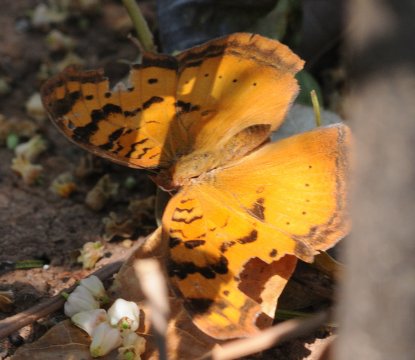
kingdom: Animalia
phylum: Arthropoda
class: Insecta
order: Lepidoptera
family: Nymphalidae
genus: Junonia
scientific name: Junonia antilope
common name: Darker Commodore
